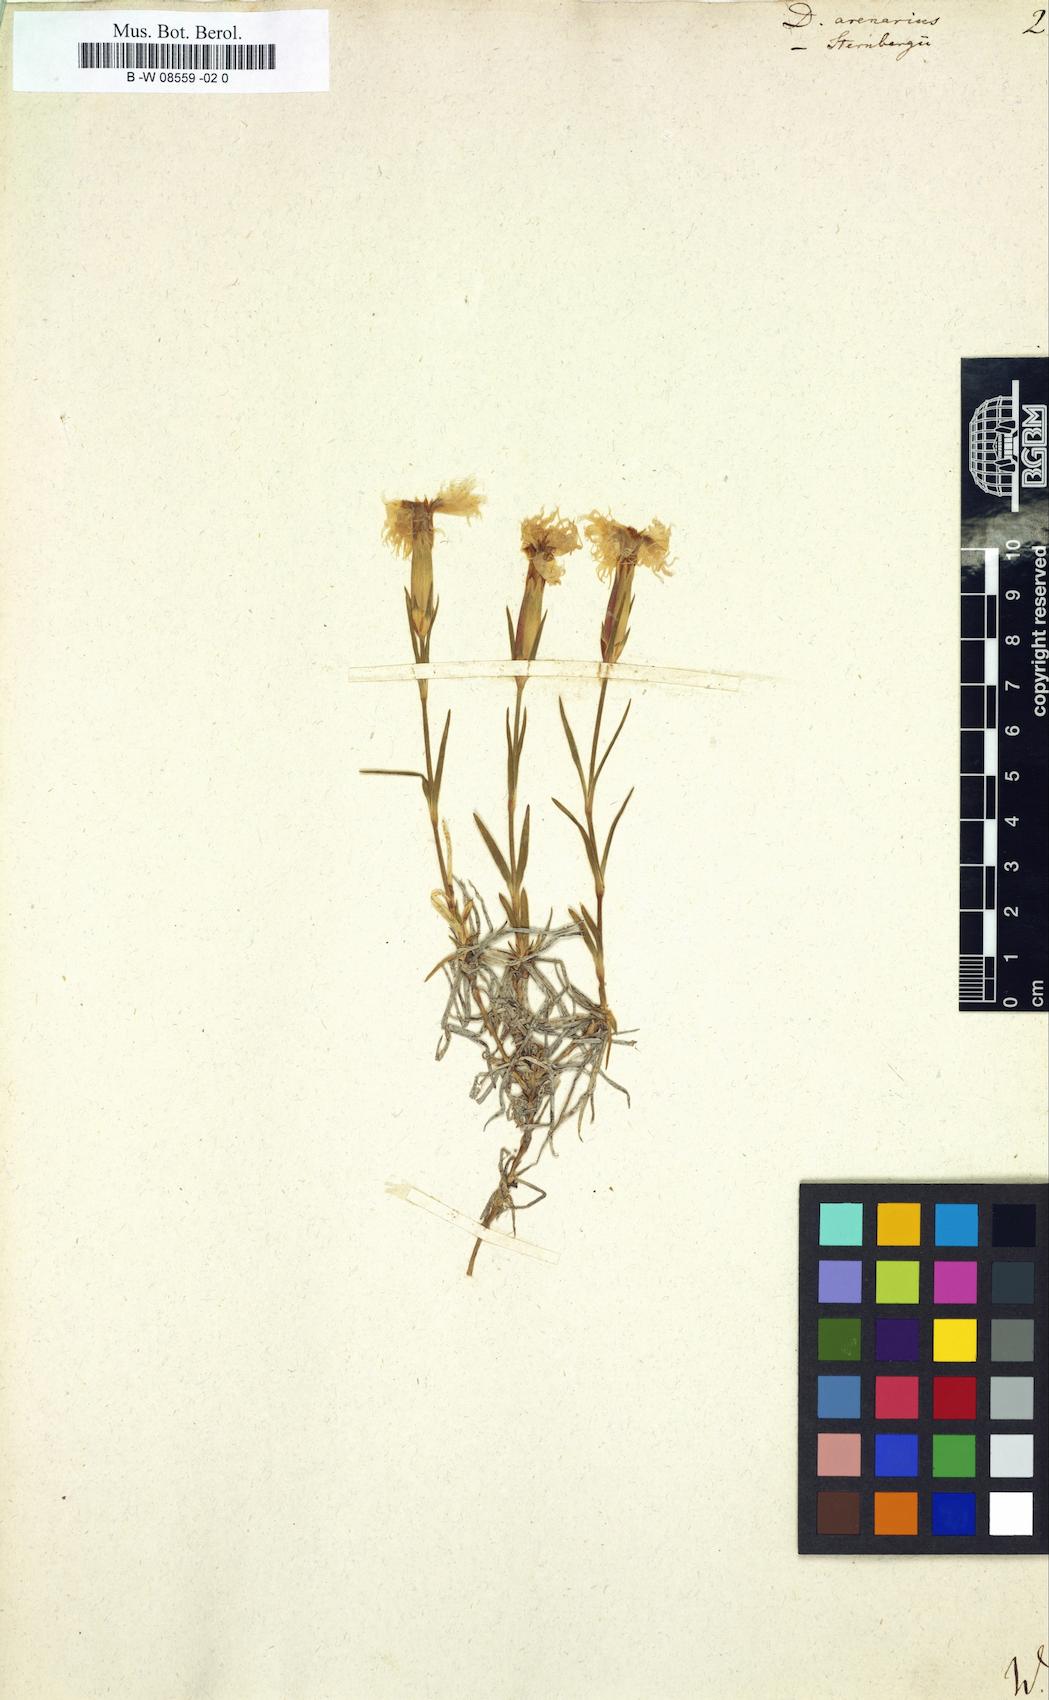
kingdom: Plantae
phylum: Tracheophyta
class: Magnoliopsida
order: Caryophyllales
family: Caryophyllaceae
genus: Dianthus
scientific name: Dianthus arenarius
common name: Stone pink
